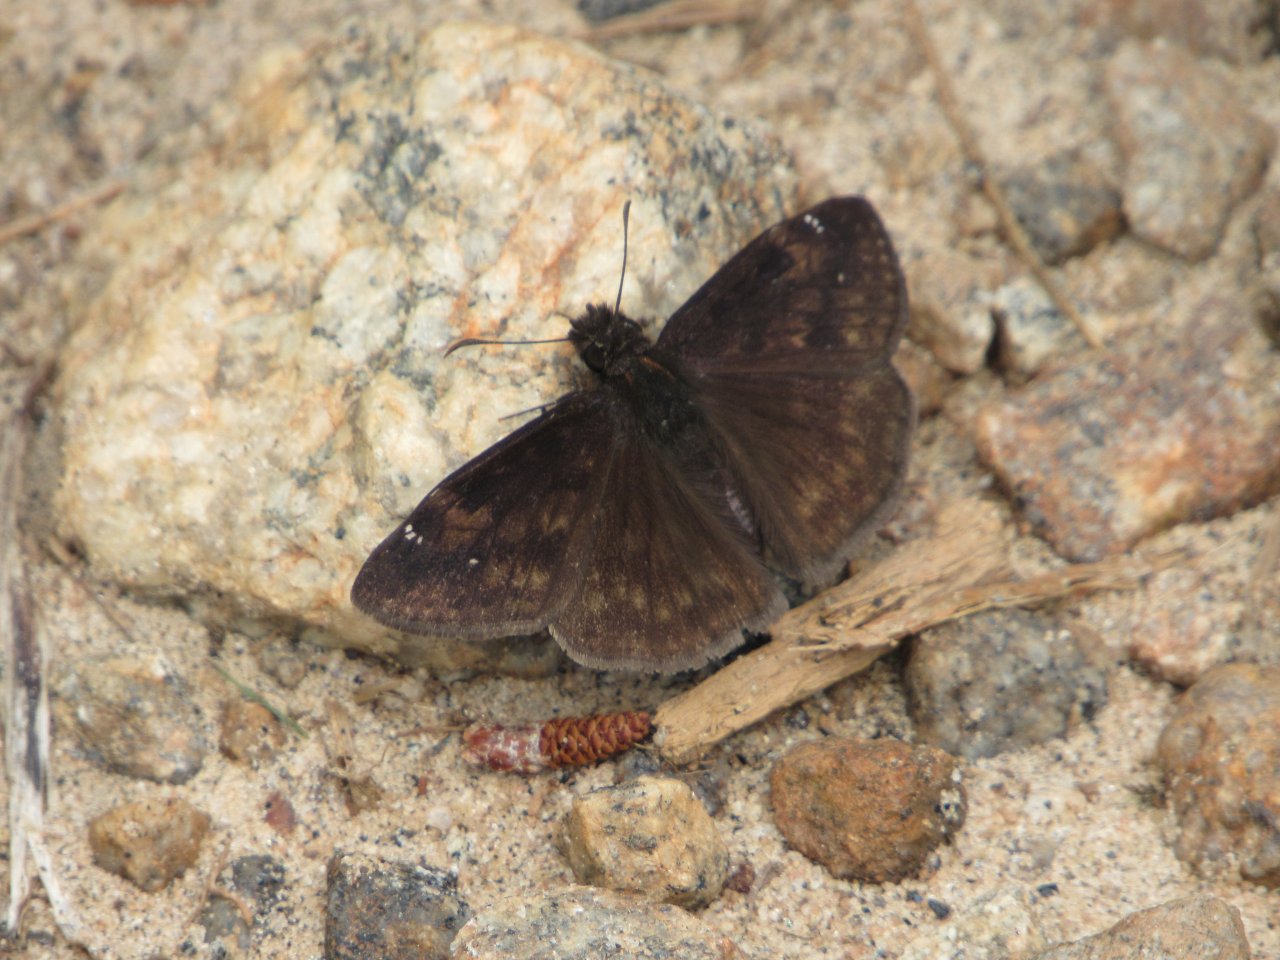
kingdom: Animalia
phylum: Arthropoda
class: Insecta
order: Lepidoptera
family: Hesperiidae
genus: Erynnis
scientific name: Erynnis zarucco
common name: Zarucco Duskywing
